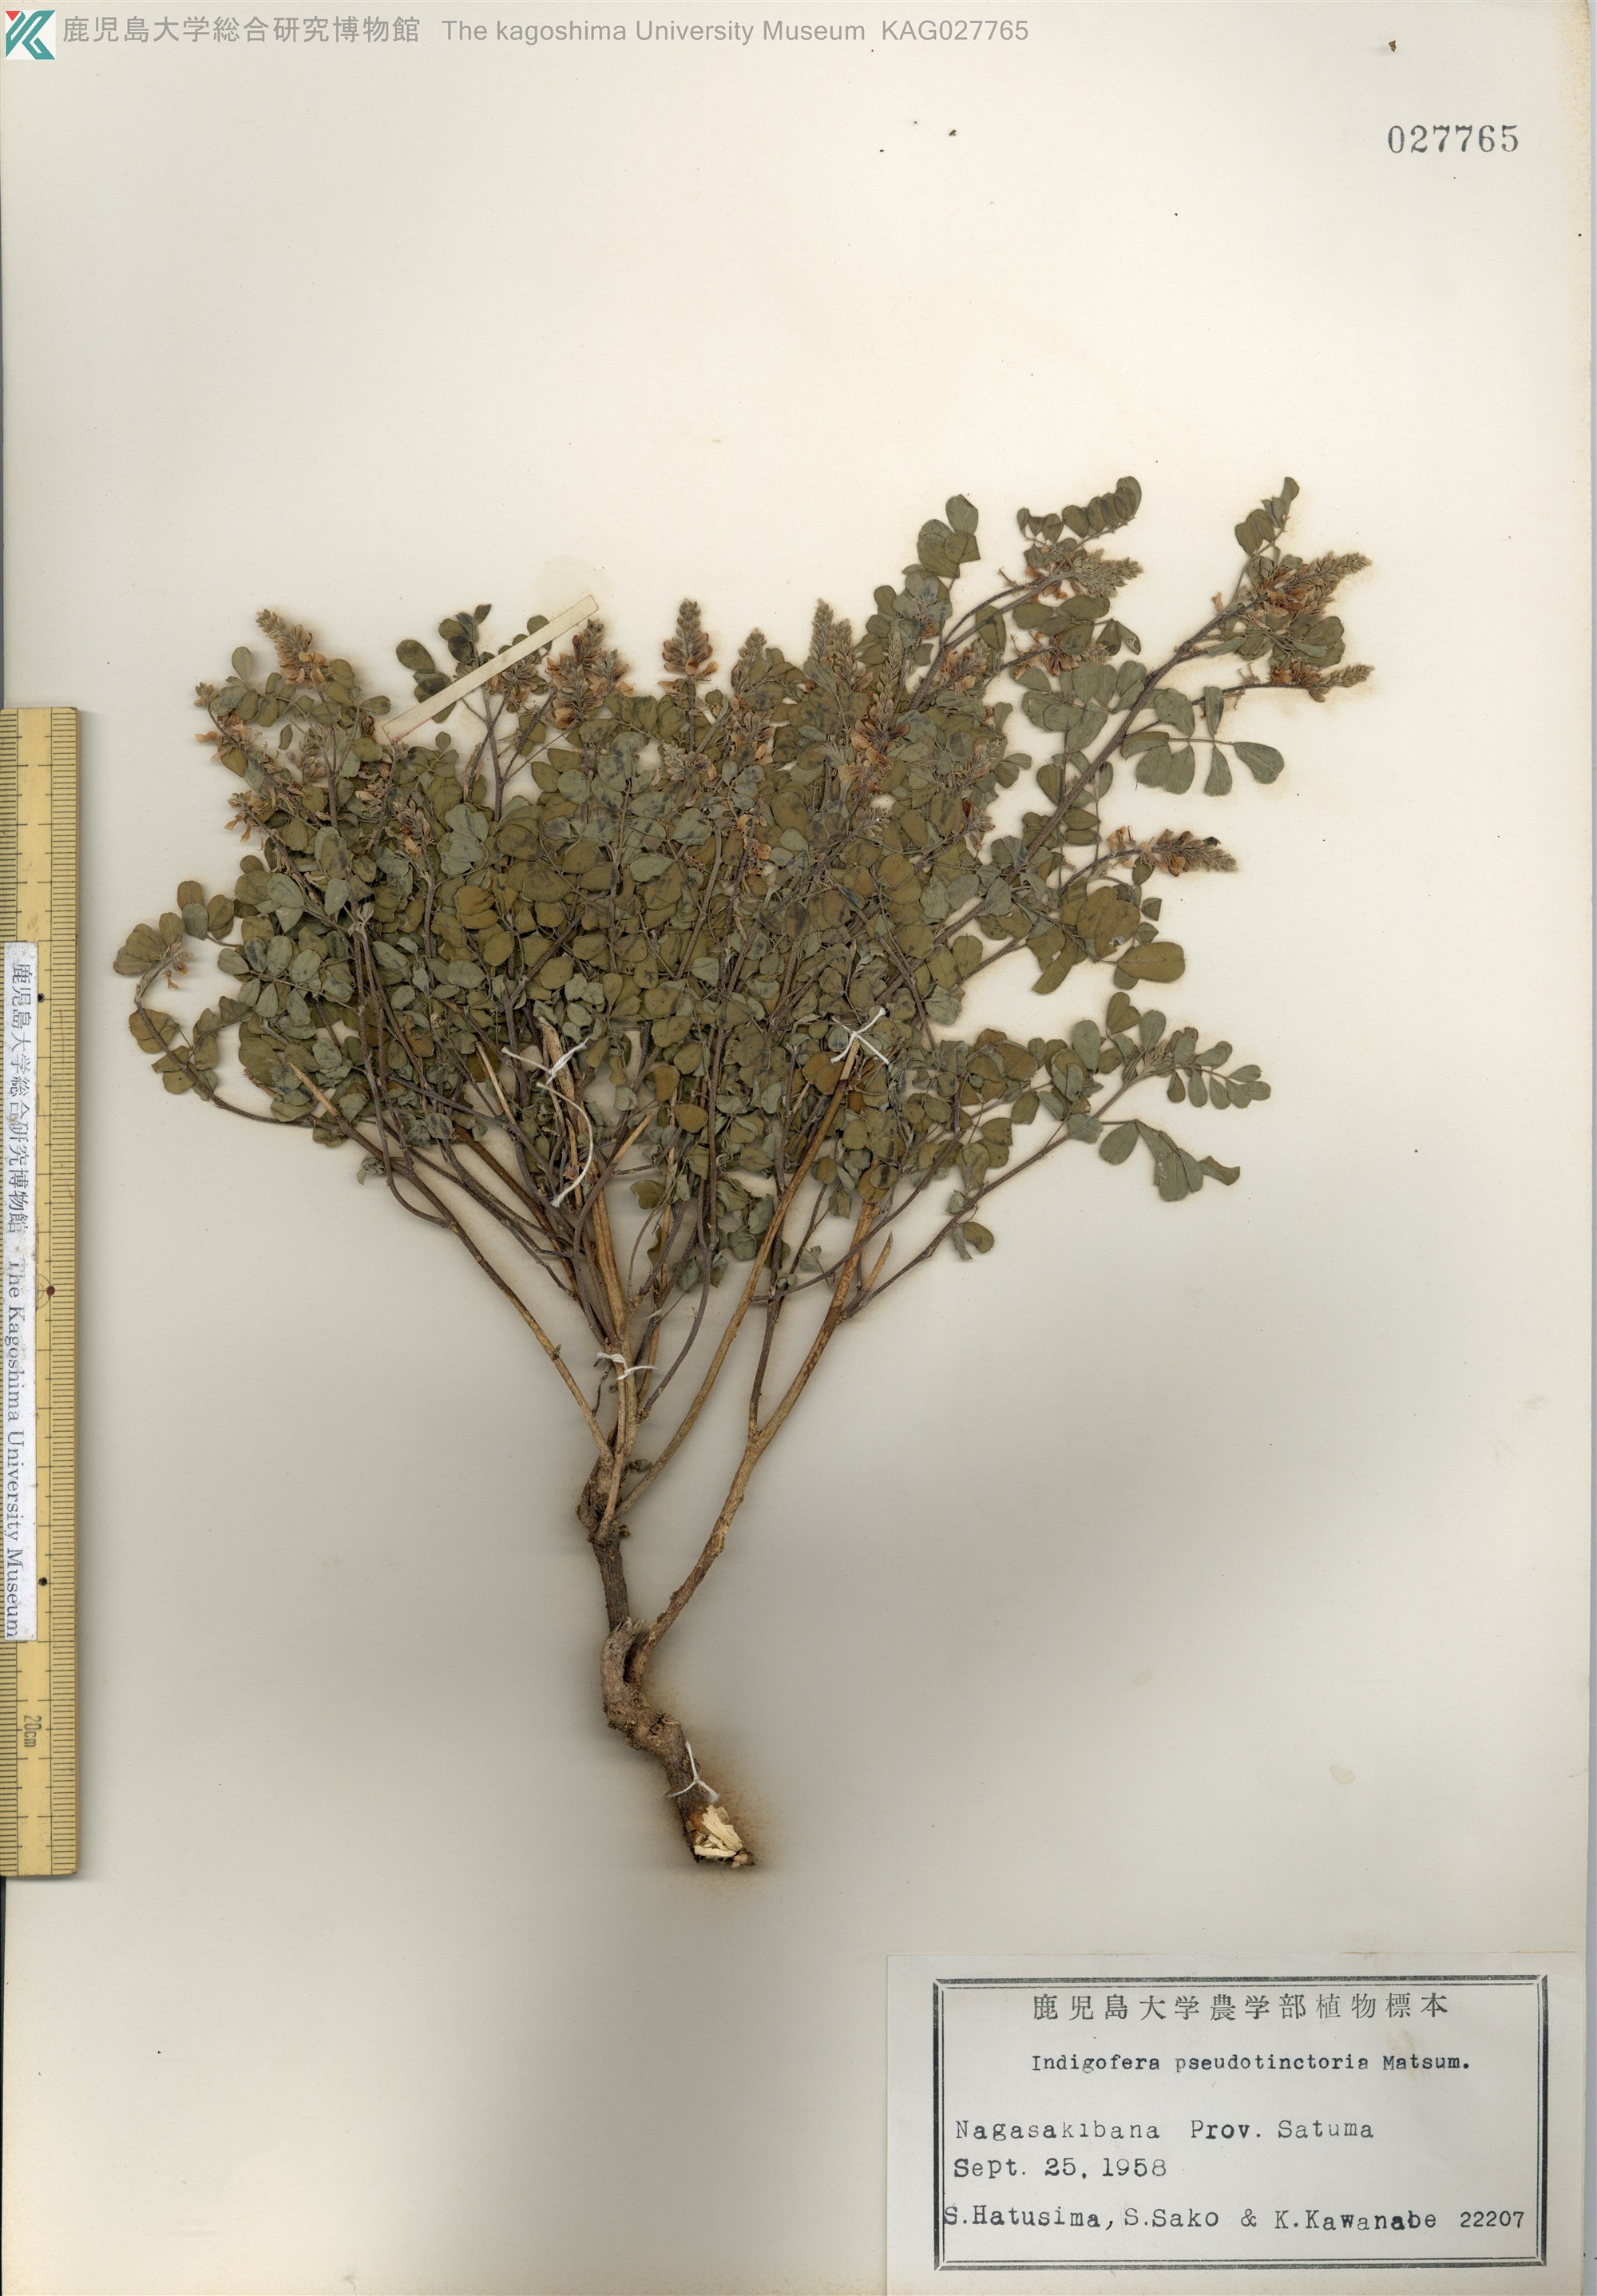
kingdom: Plantae
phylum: Tracheophyta
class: Magnoliopsida
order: Fabales
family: Fabaceae
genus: Indigofera
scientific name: Indigofera bungeana
